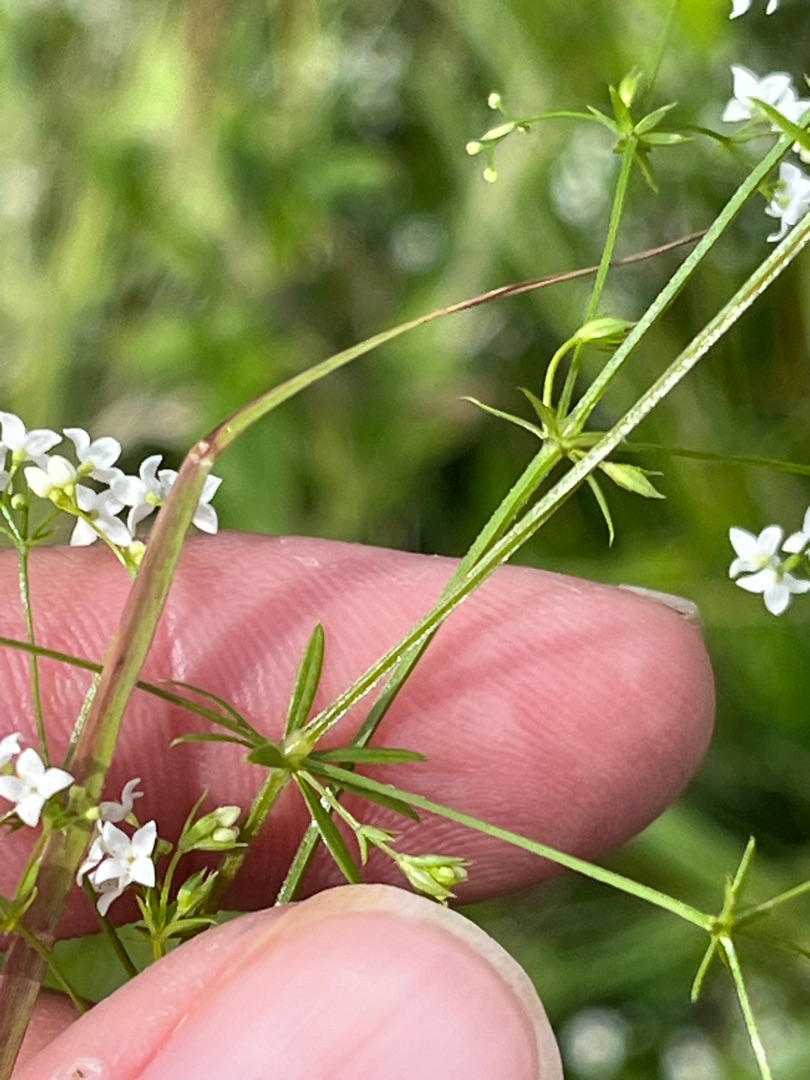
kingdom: Plantae
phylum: Tracheophyta
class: Magnoliopsida
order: Gentianales
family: Rubiaceae
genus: Galium
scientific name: Galium uliginosum
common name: Sump-snerre
